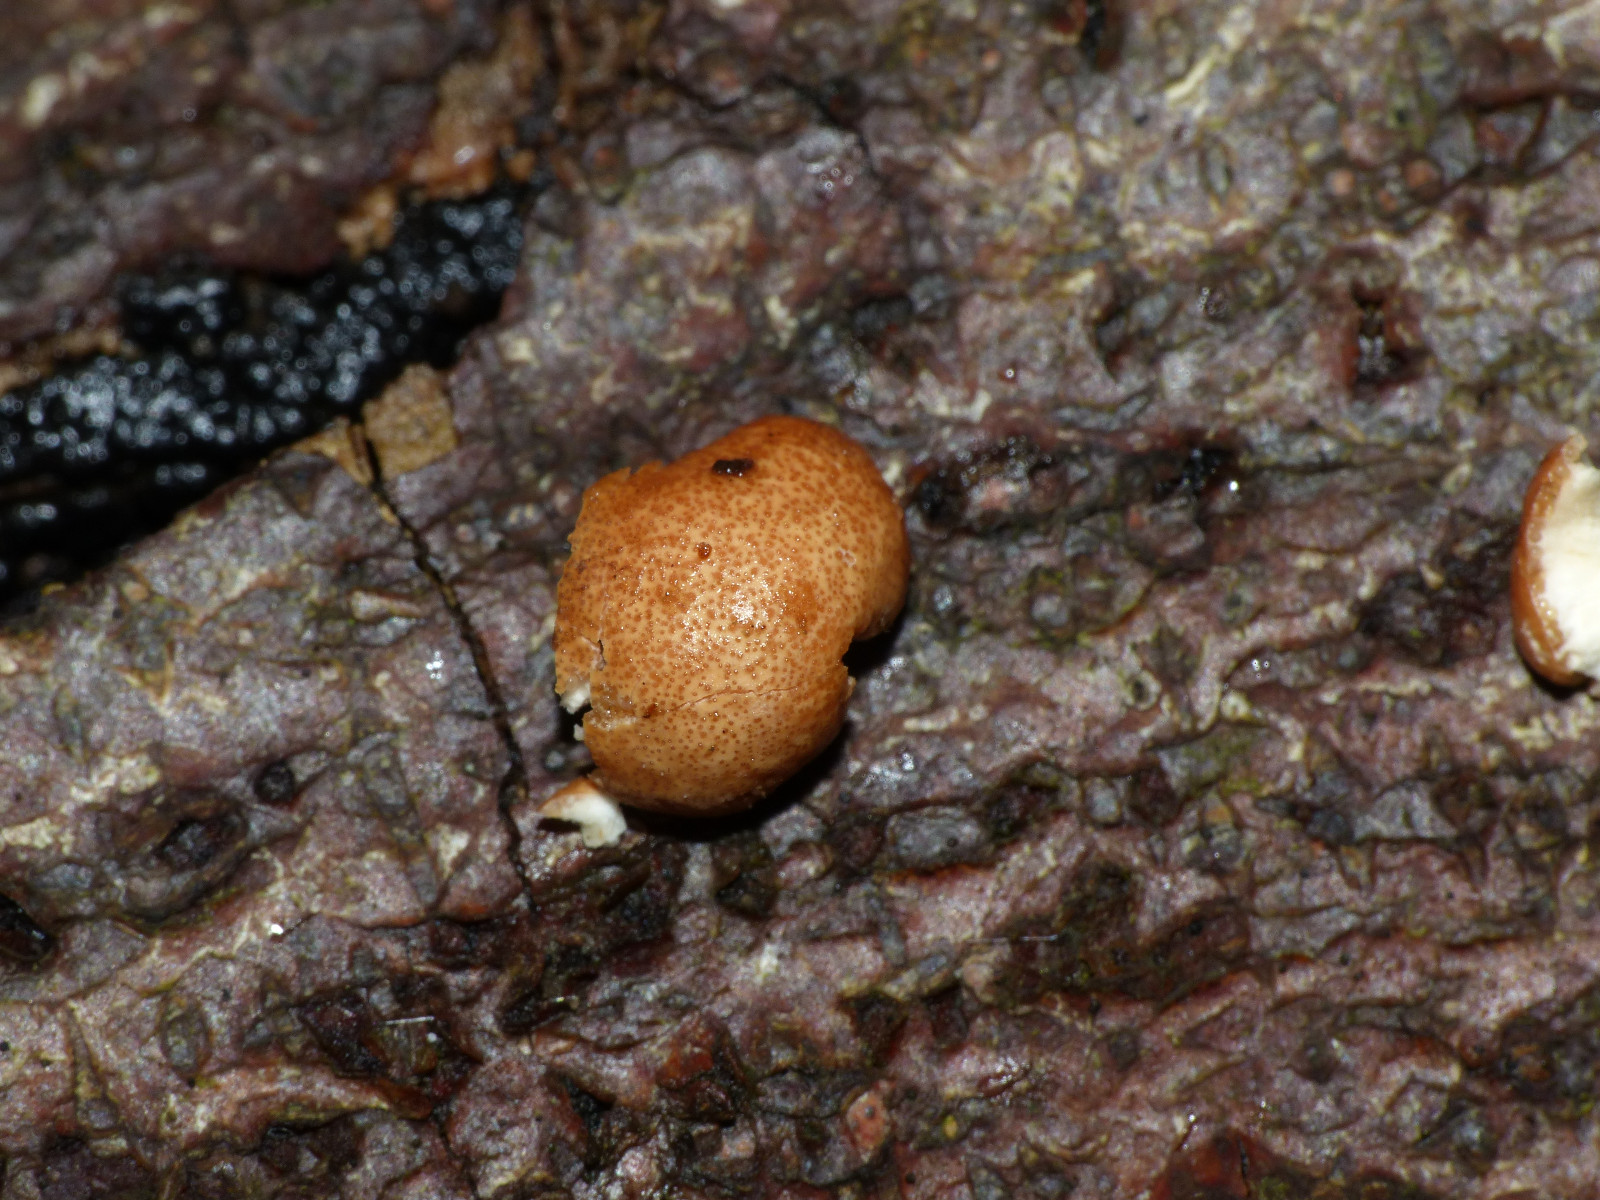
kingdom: Fungi
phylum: Ascomycota
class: Sordariomycetes
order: Hypocreales
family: Hypocreaceae
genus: Trichoderma
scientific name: Trichoderma europaeum
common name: rosabrun kødkerne
